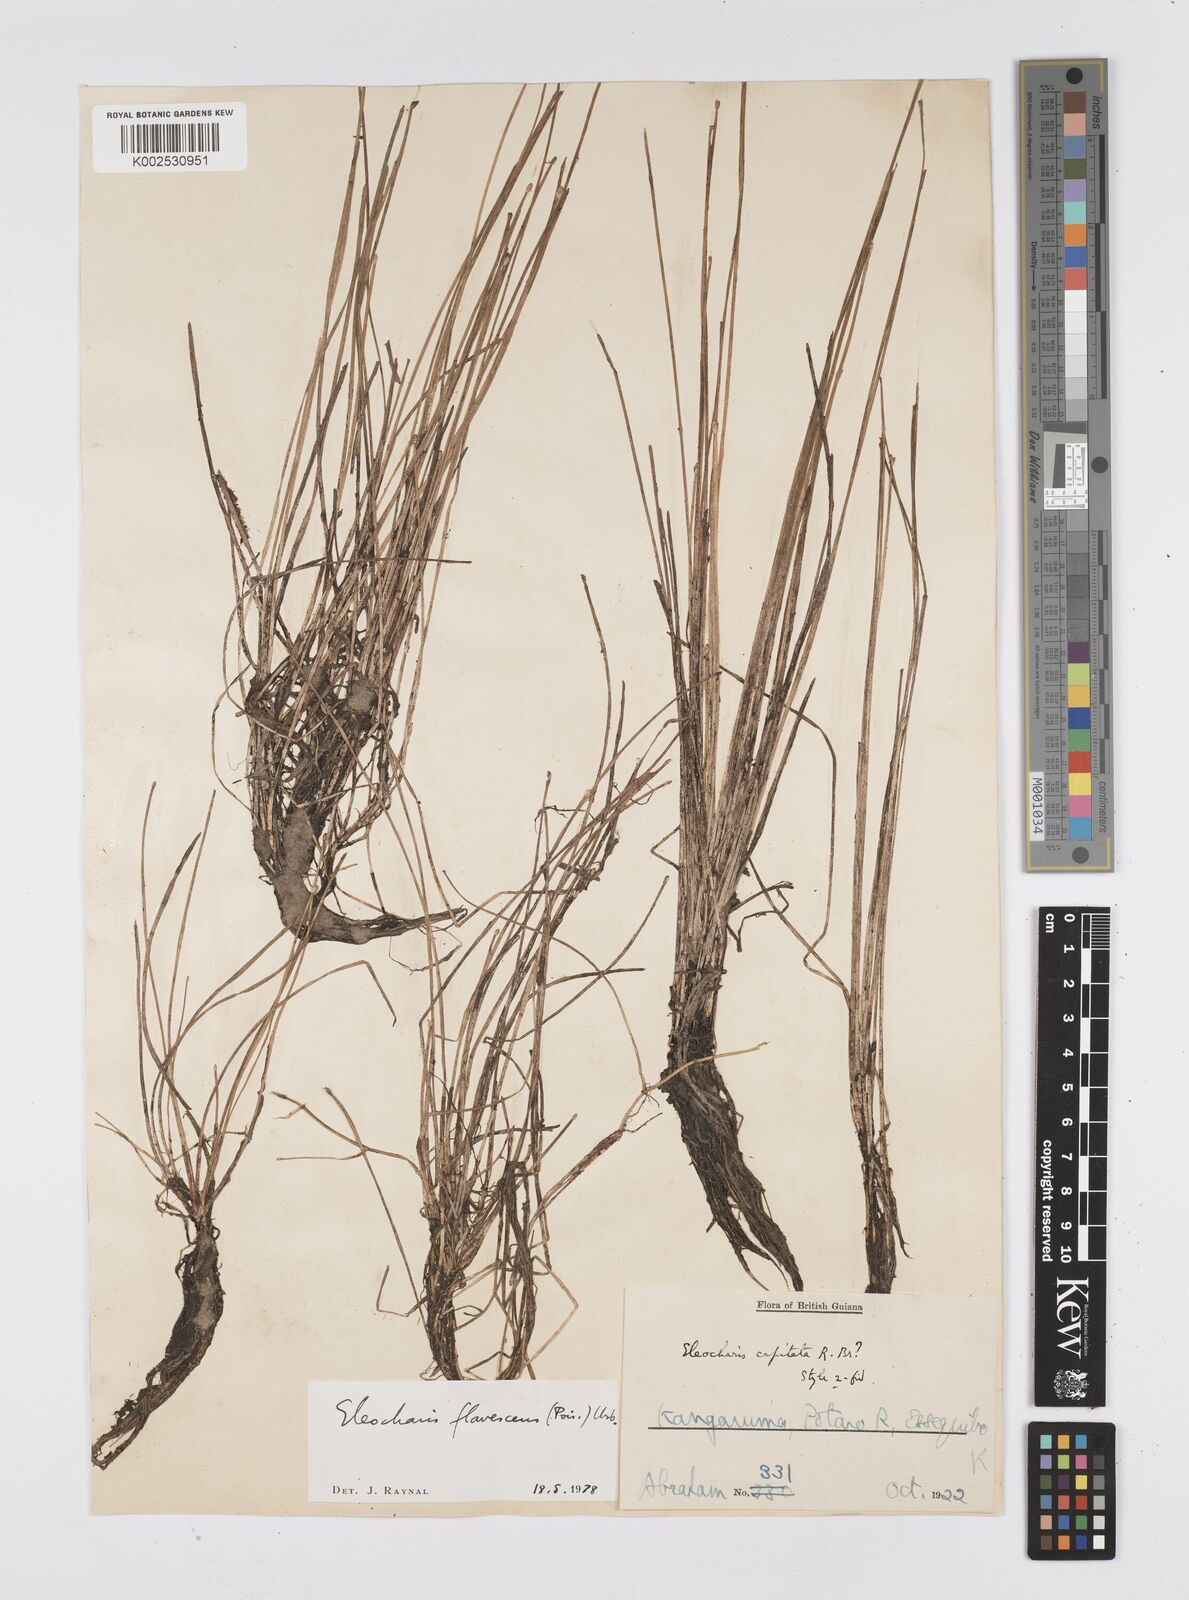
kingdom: Plantae
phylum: Tracheophyta
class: Liliopsida
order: Poales
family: Cyperaceae
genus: Eleocharis
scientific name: Eleocharis flavescens
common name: Yellow spikerush
